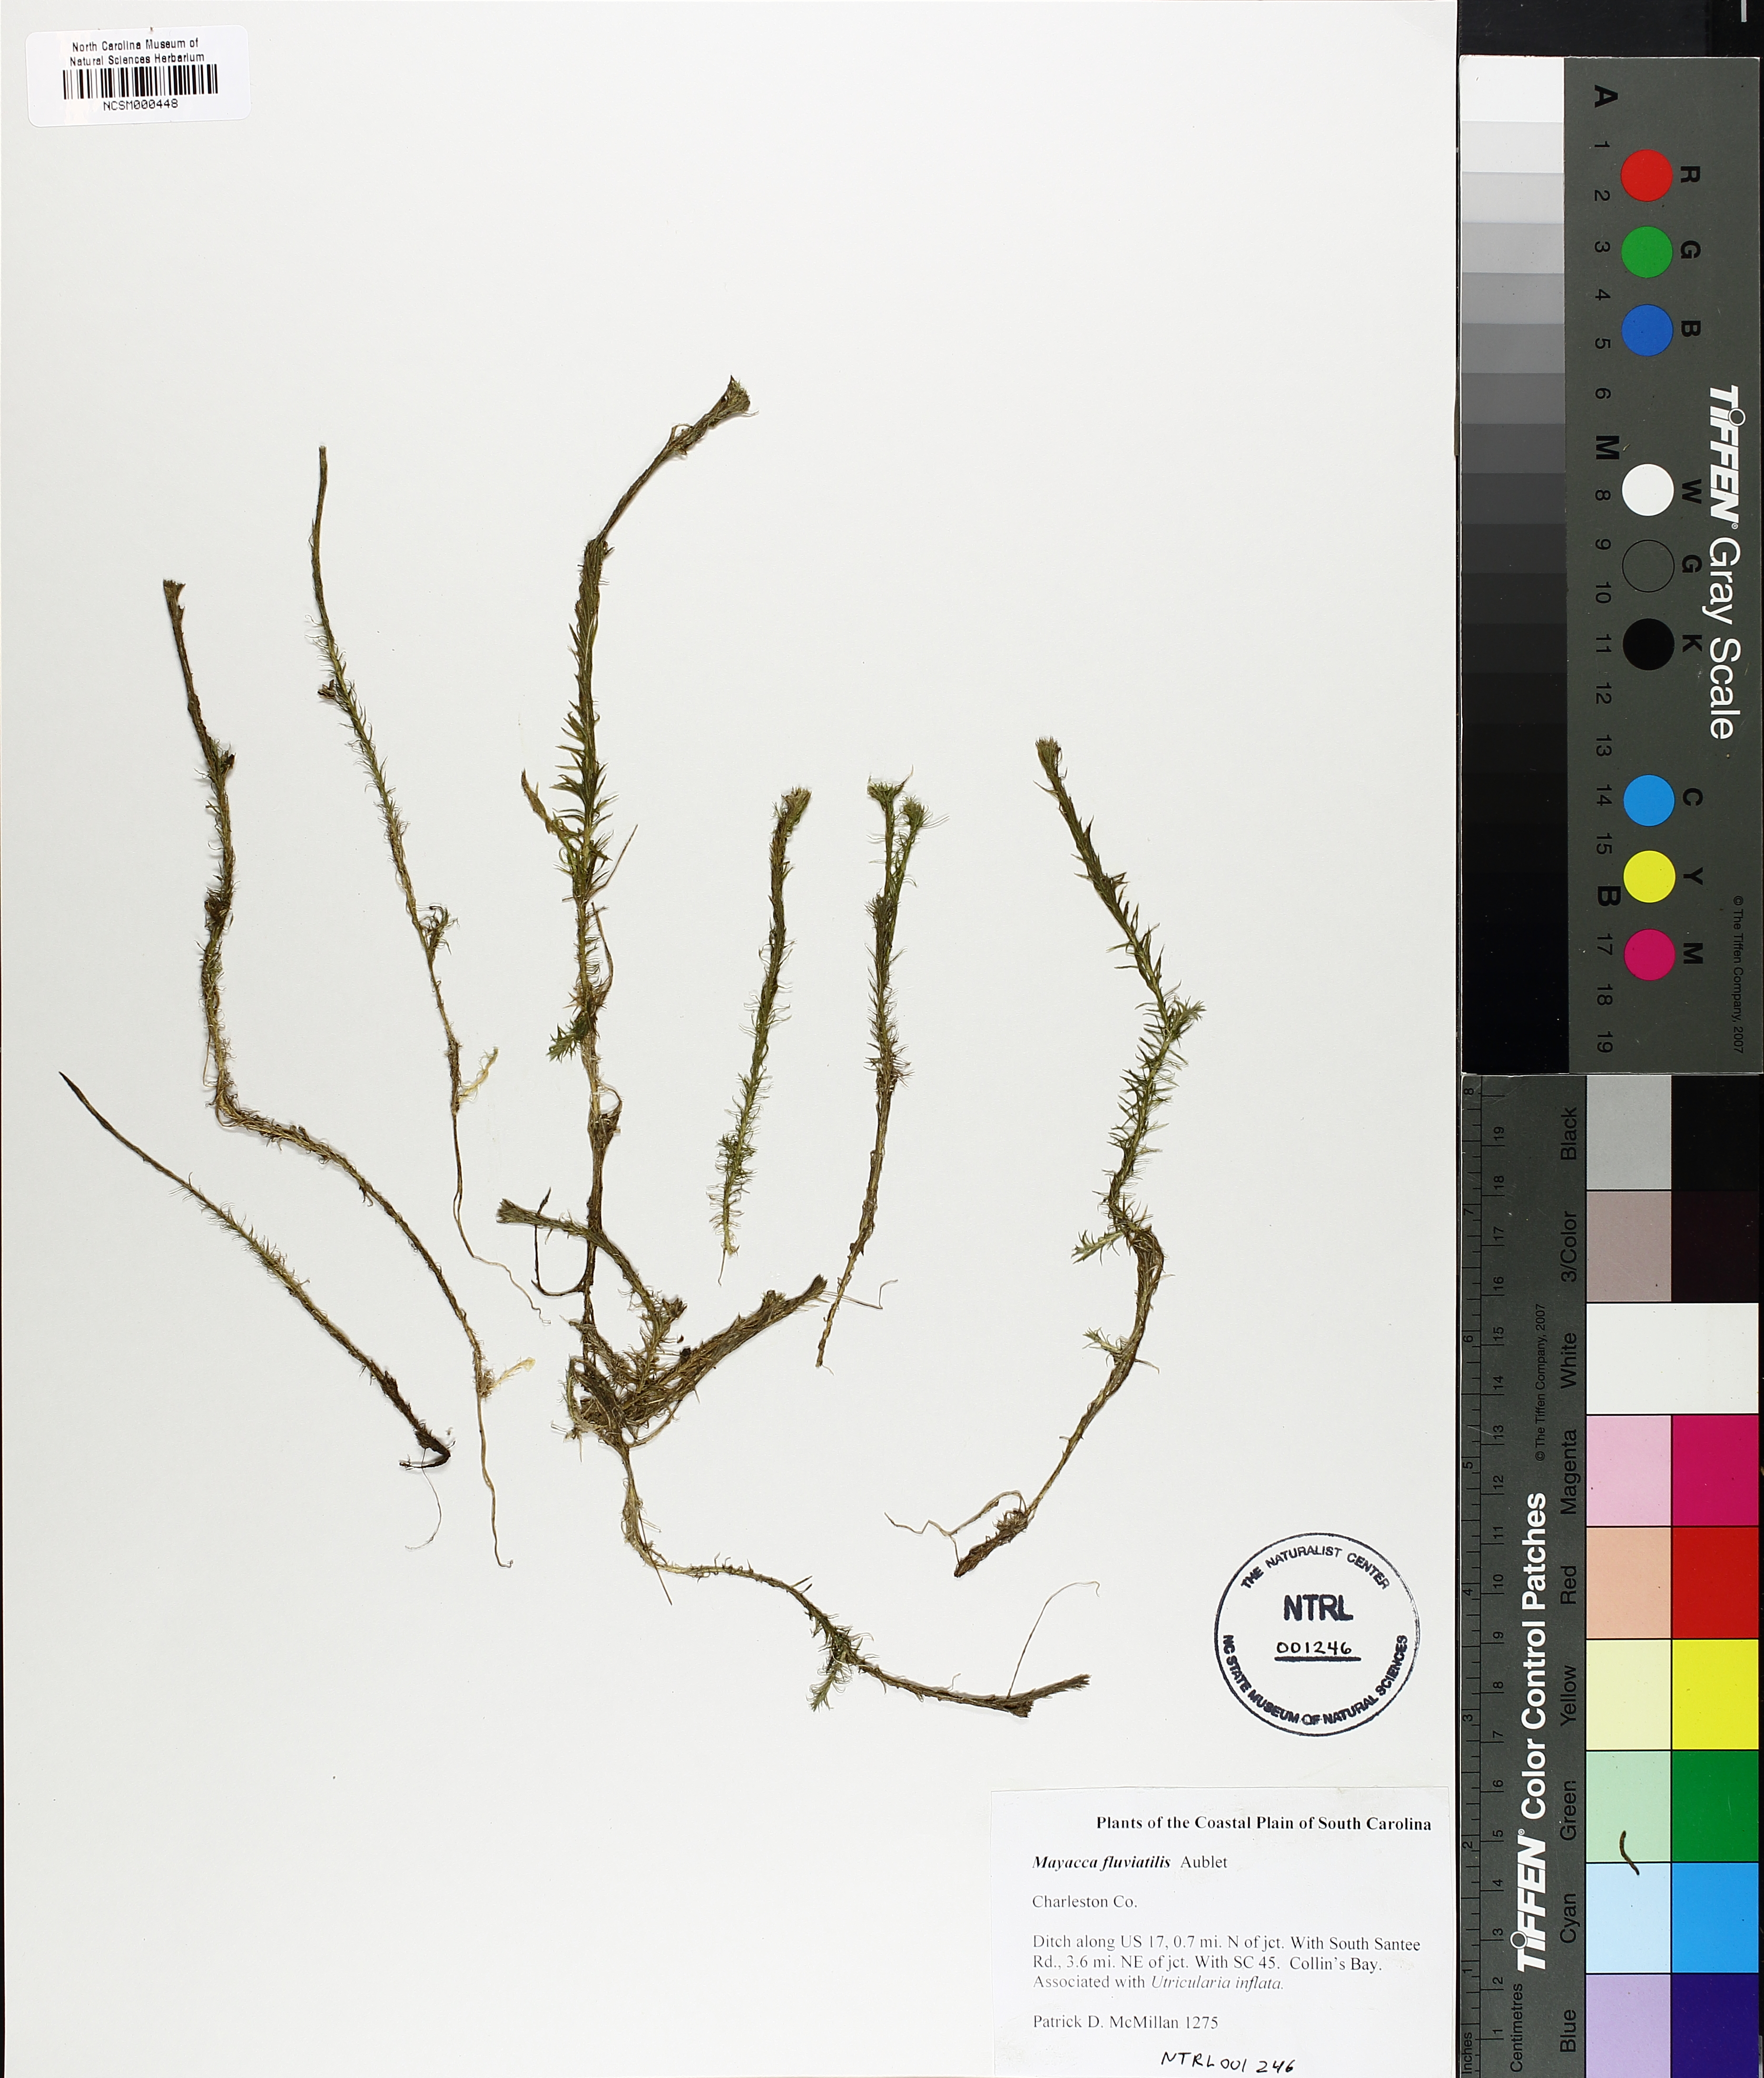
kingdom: Plantae
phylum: Tracheophyta
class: Liliopsida
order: Poales
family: Mayacaceae
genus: Mayaca
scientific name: Mayaca fluviatilis
